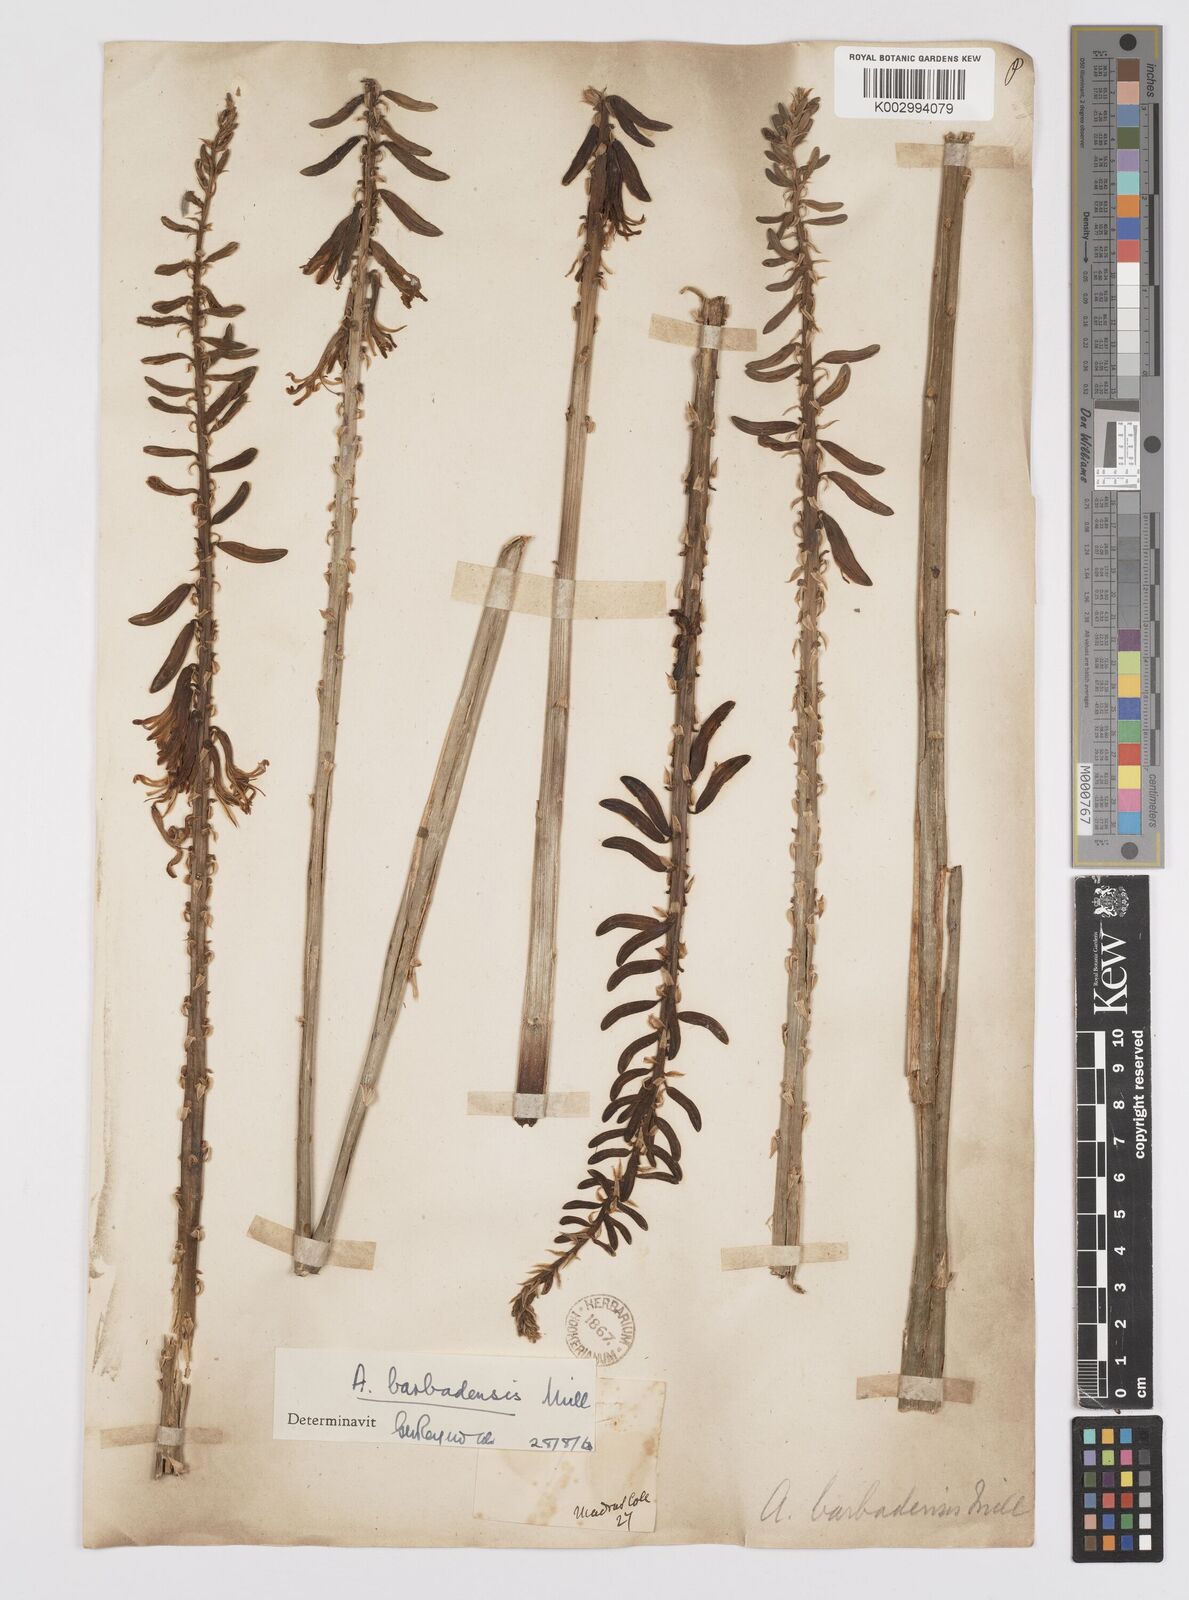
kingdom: Plantae
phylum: Tracheophyta
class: Liliopsida
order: Asparagales
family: Asphodelaceae
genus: Aloe
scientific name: Aloe vera
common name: Barbados aloe
